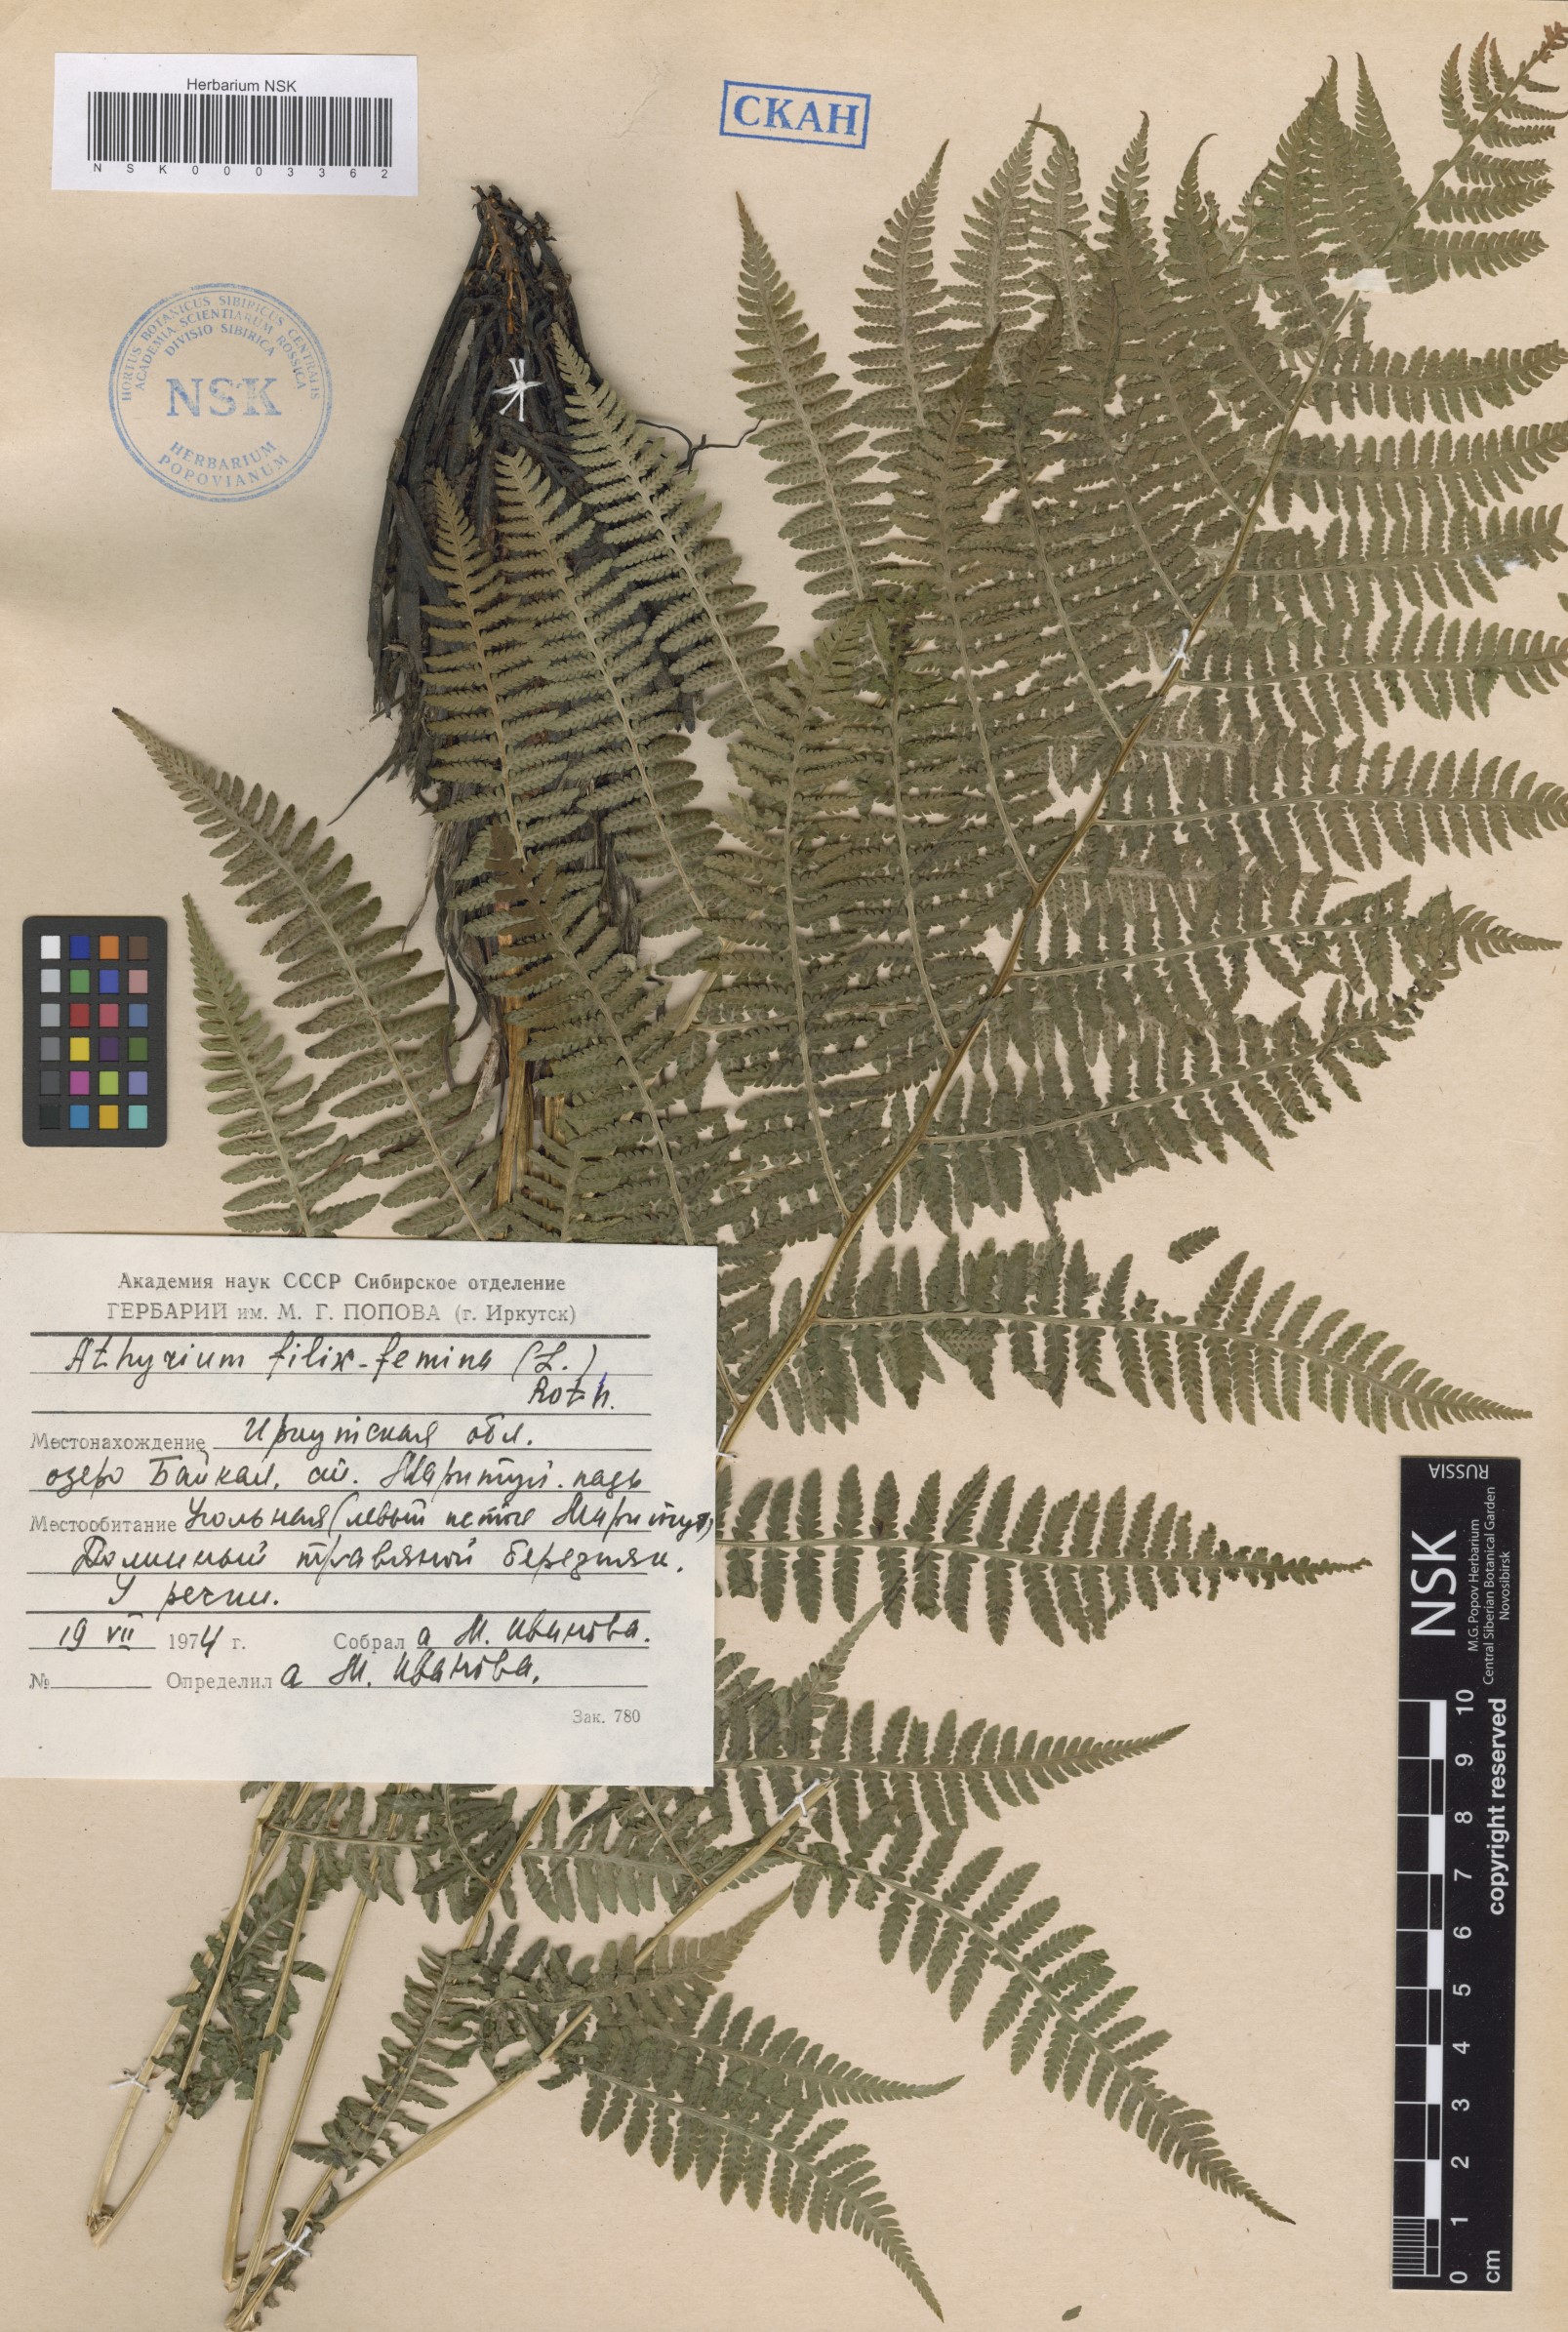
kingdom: Plantae
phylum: Tracheophyta
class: Polypodiopsida
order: Polypodiales
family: Athyriaceae
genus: Athyrium
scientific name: Athyrium filix-femina
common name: Lady fern
